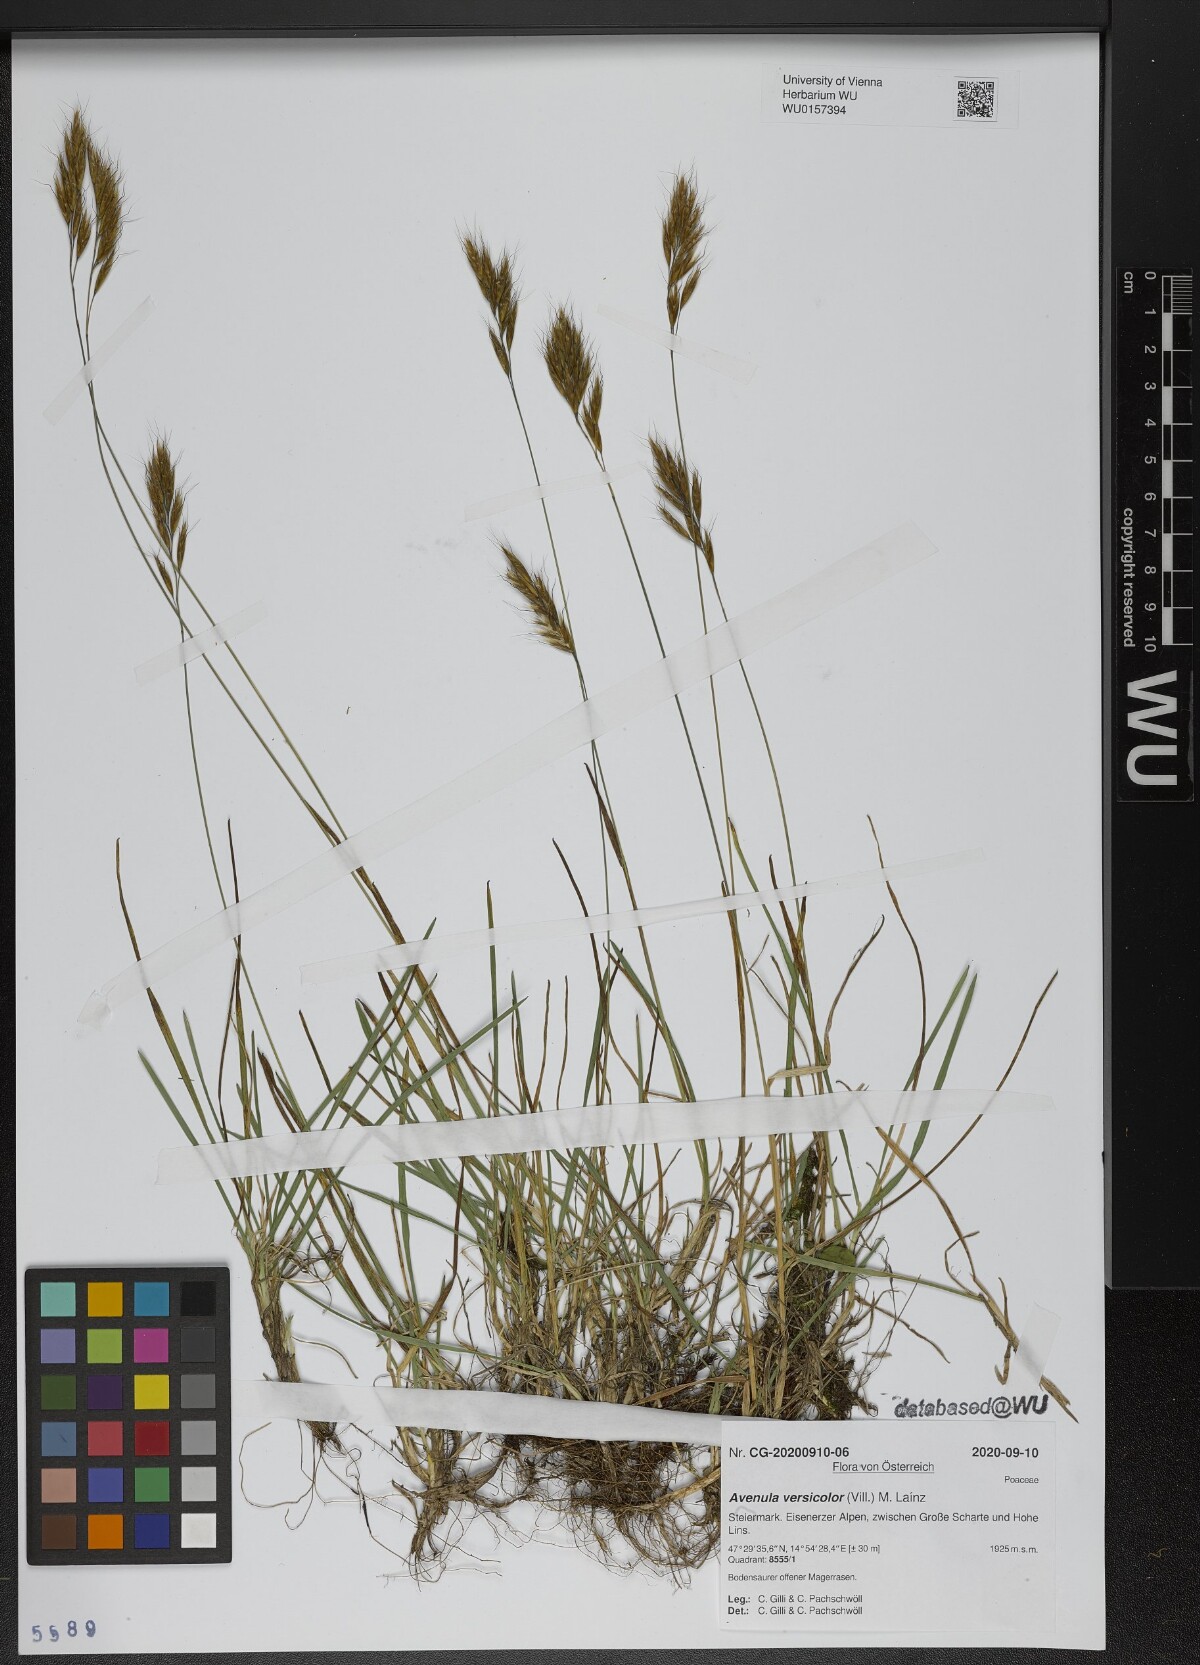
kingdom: Plantae
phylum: Tracheophyta
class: Liliopsida
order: Poales
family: Poaceae
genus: Helictochloa
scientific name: Helictochloa versicolor
